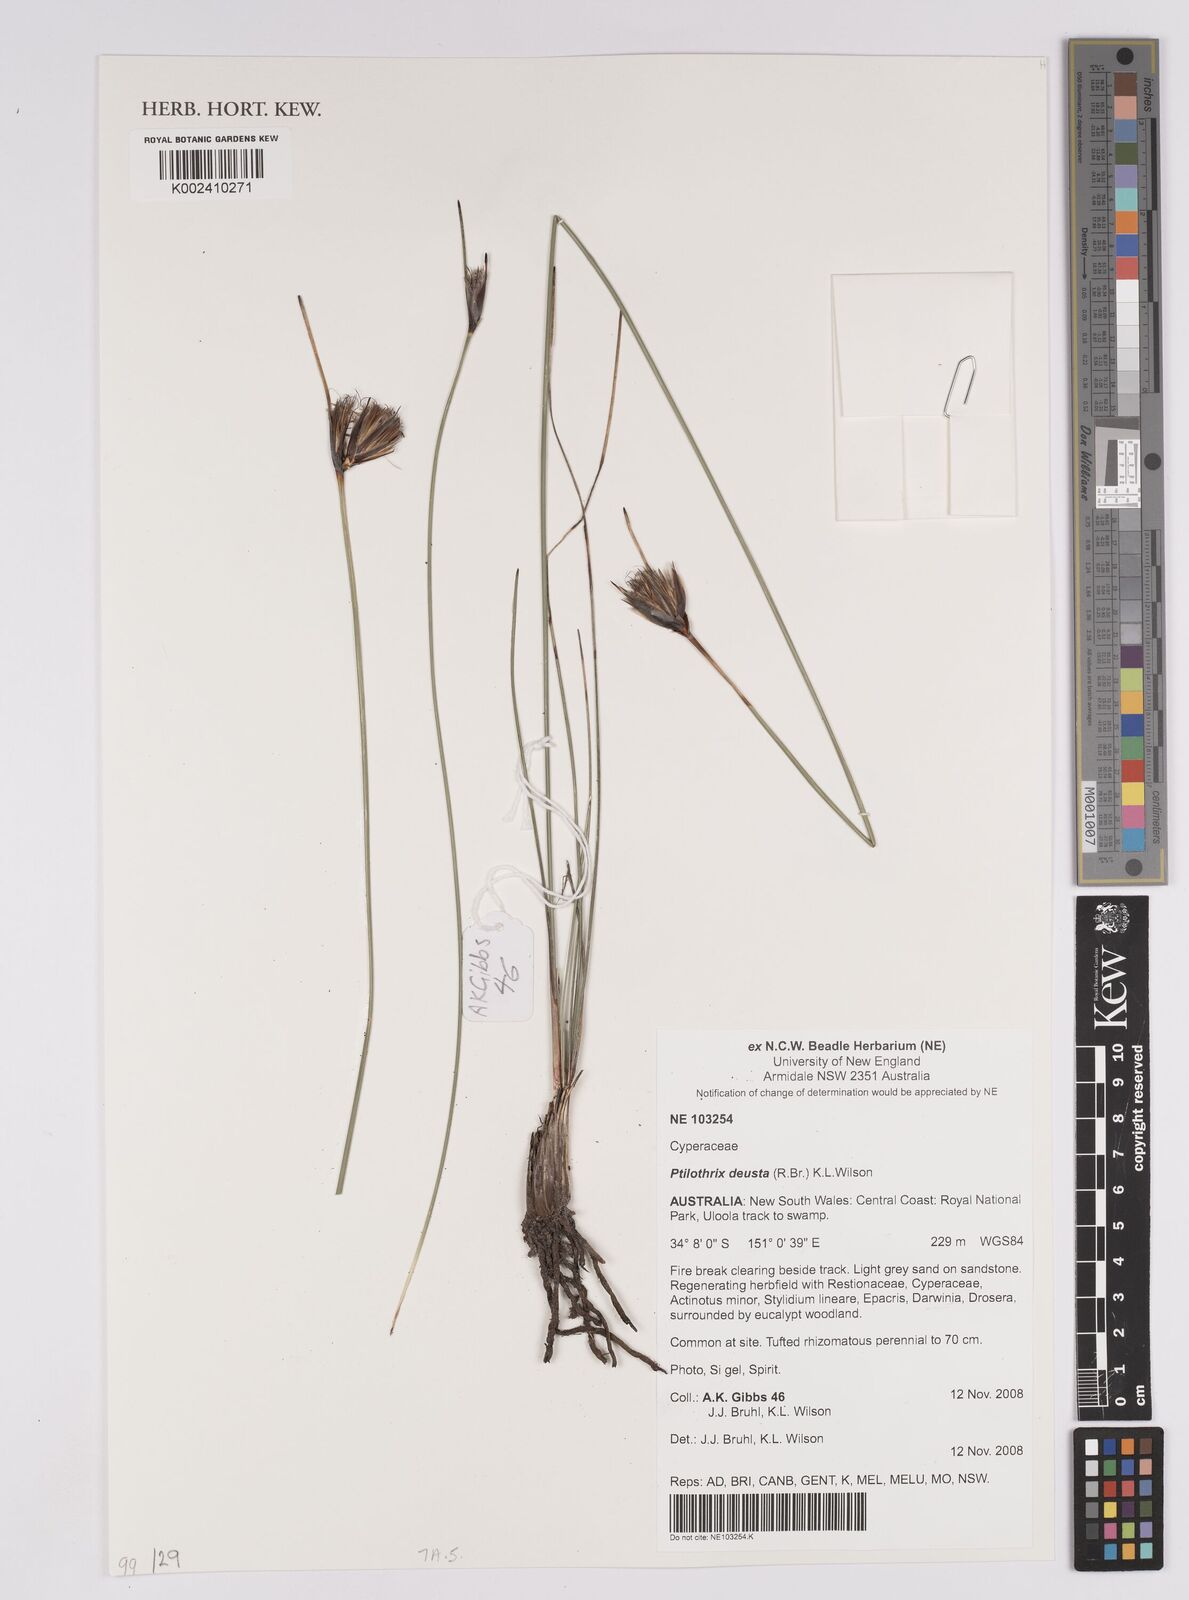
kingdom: Plantae
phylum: Tracheophyta
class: Liliopsida
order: Poales
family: Cyperaceae
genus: Calyptrocarya
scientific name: Calyptrocarya
